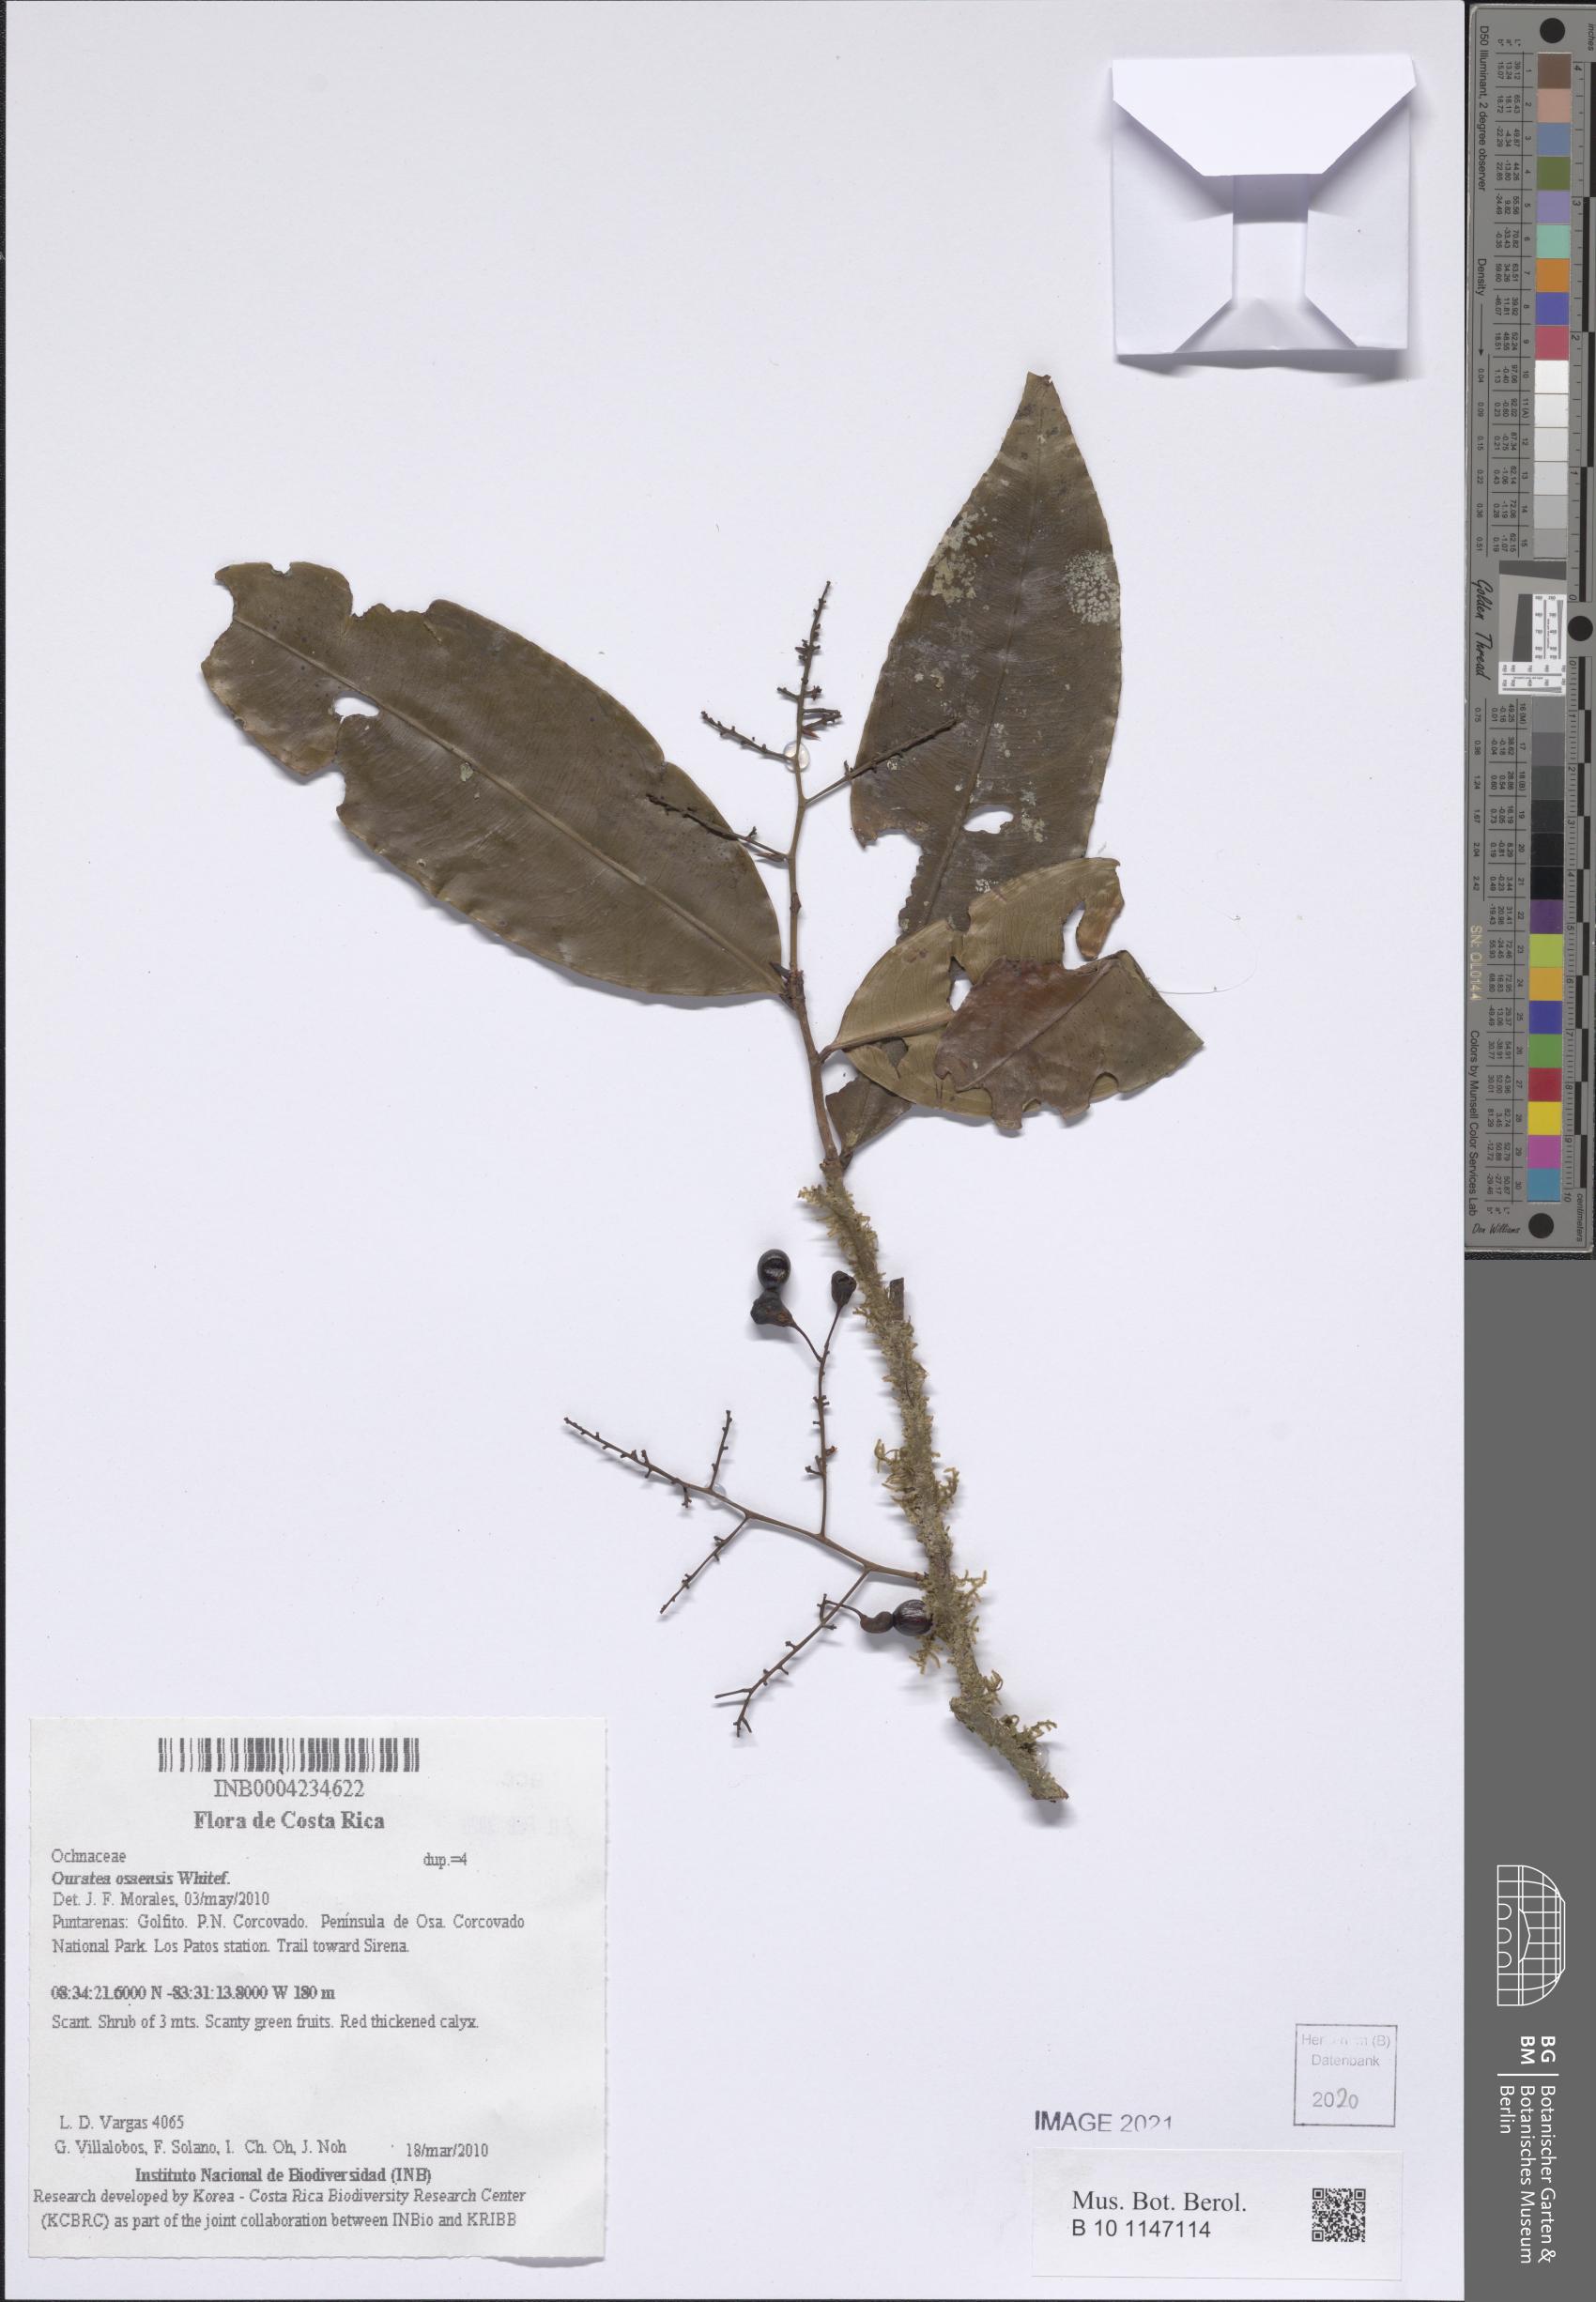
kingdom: Plantae
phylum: Tracheophyta
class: Magnoliopsida
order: Malpighiales
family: Ochnaceae
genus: Ouratea
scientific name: Ouratea osaensis
